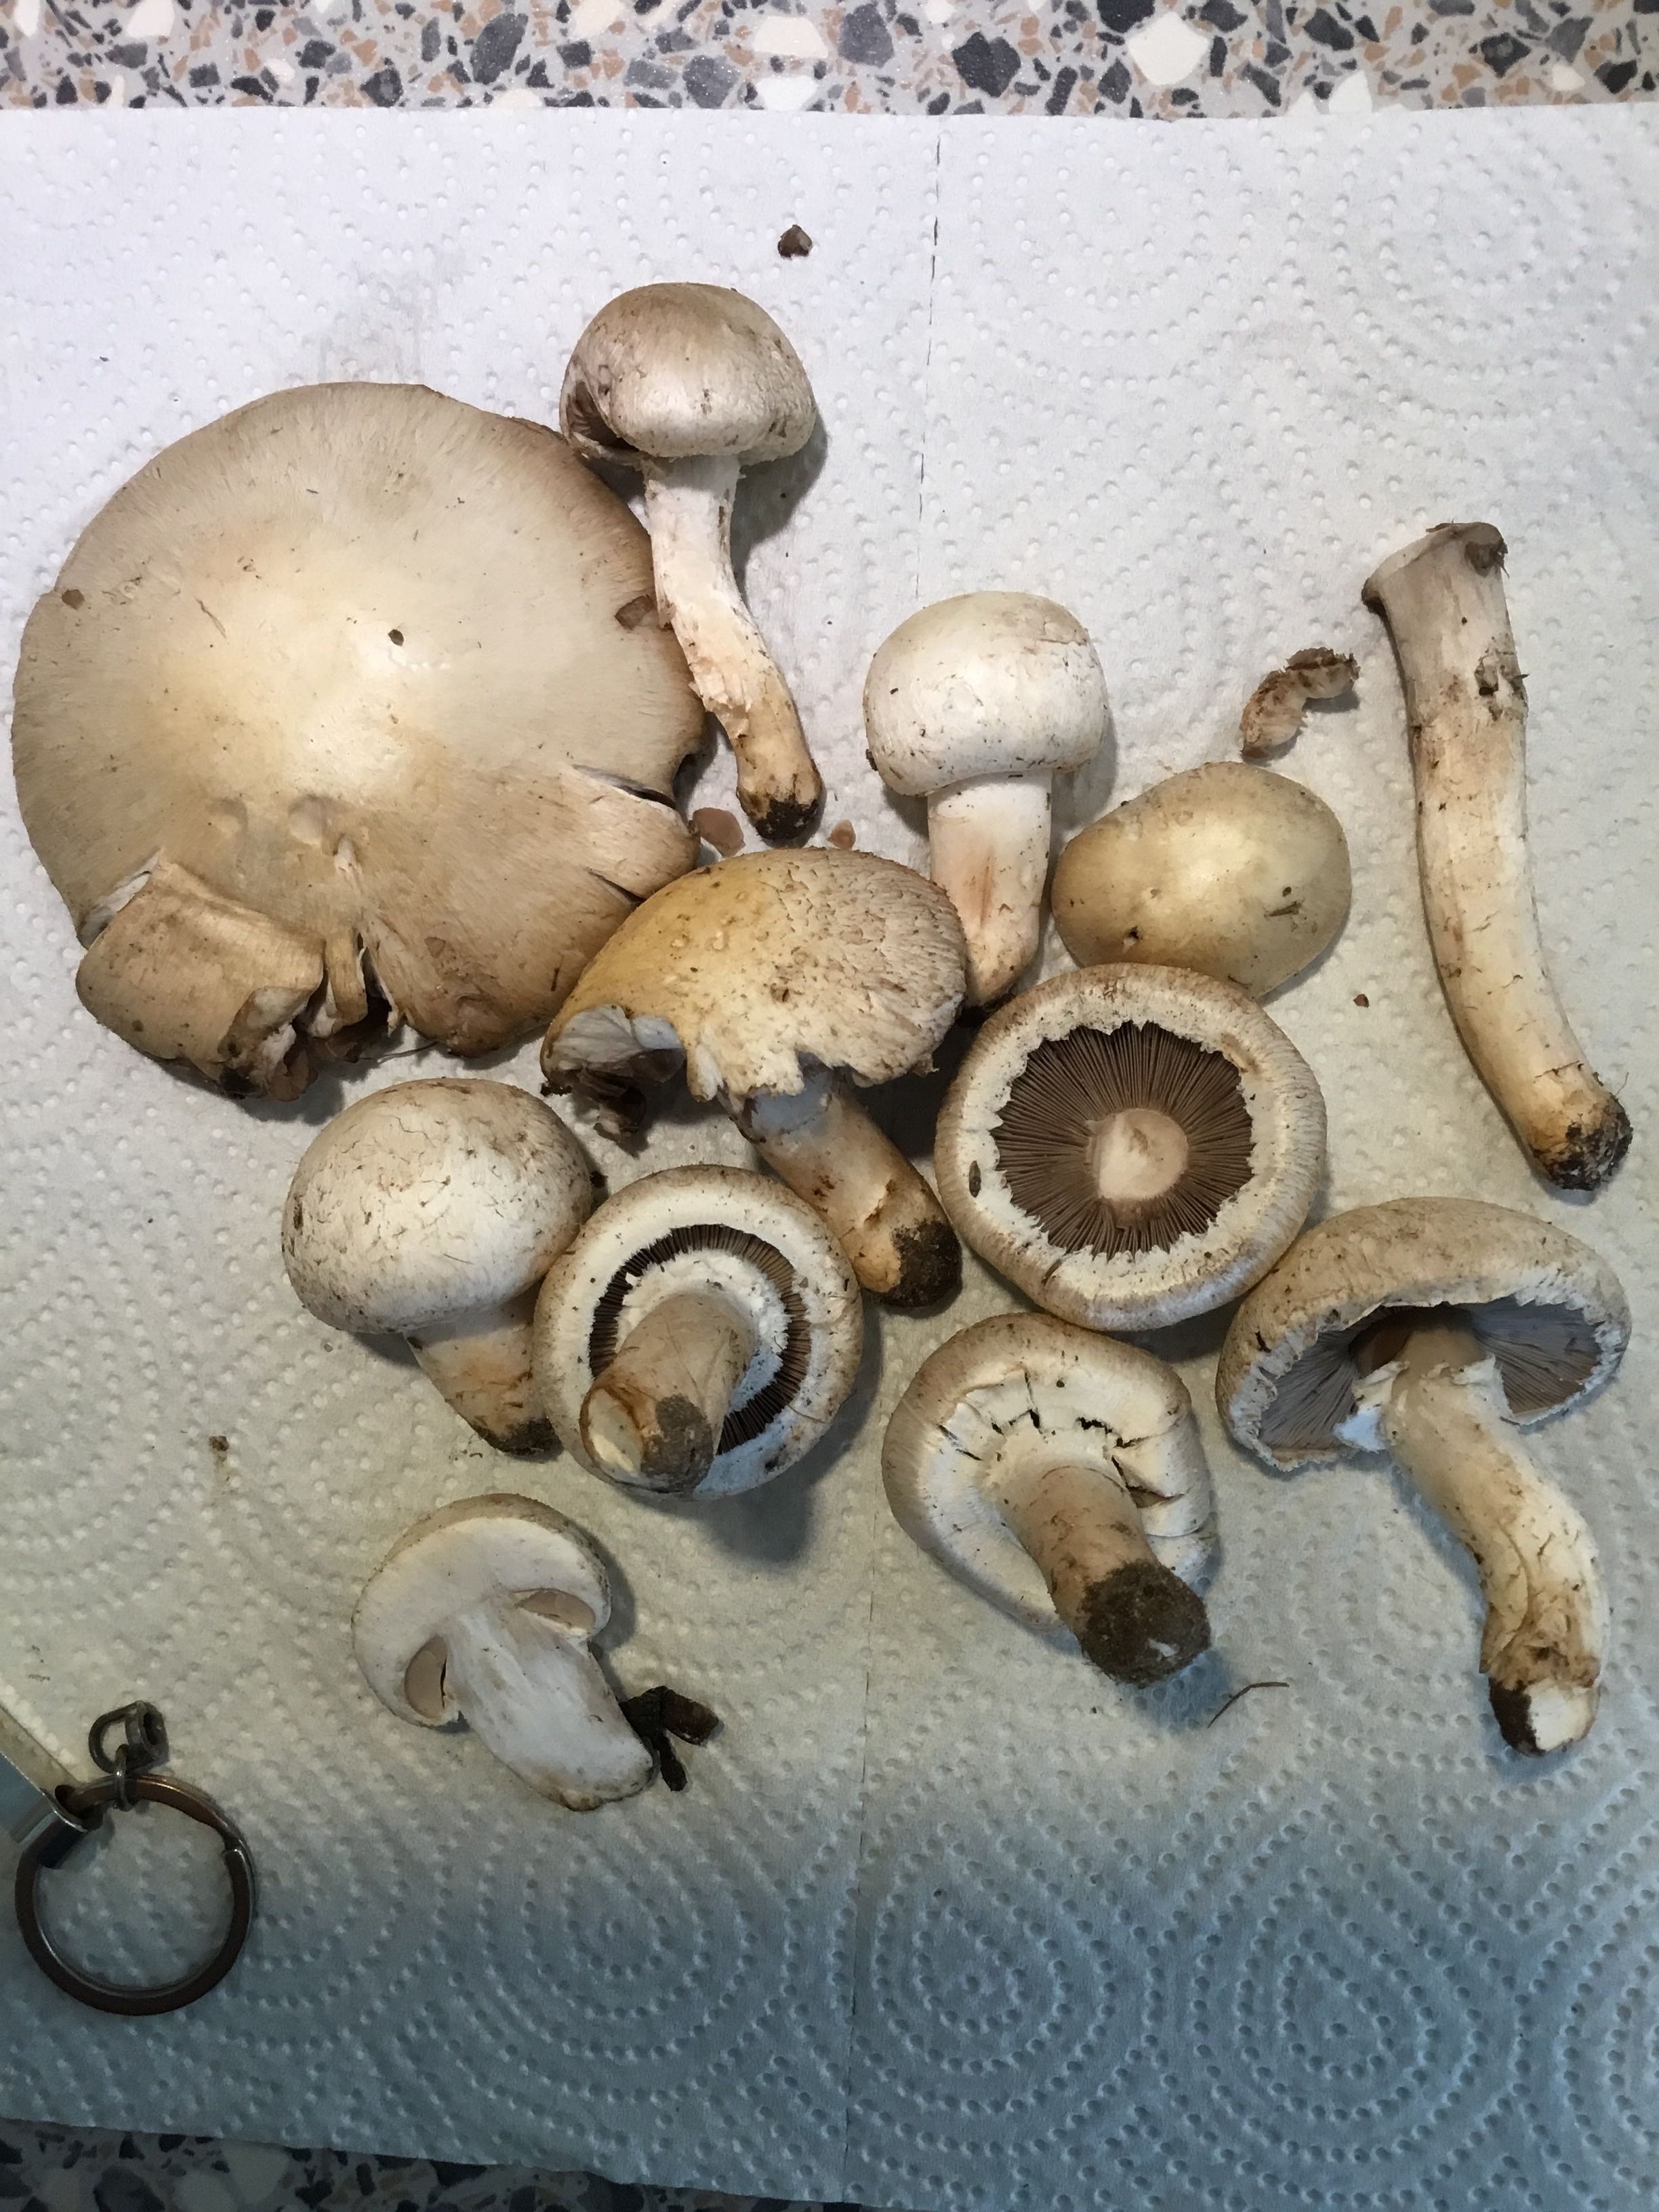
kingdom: Fungi
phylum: Basidiomycota
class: Agaricomycetes
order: Agaricales
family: Agaricaceae
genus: Agaricus
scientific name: Agaricus campestris
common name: mark-champignon
